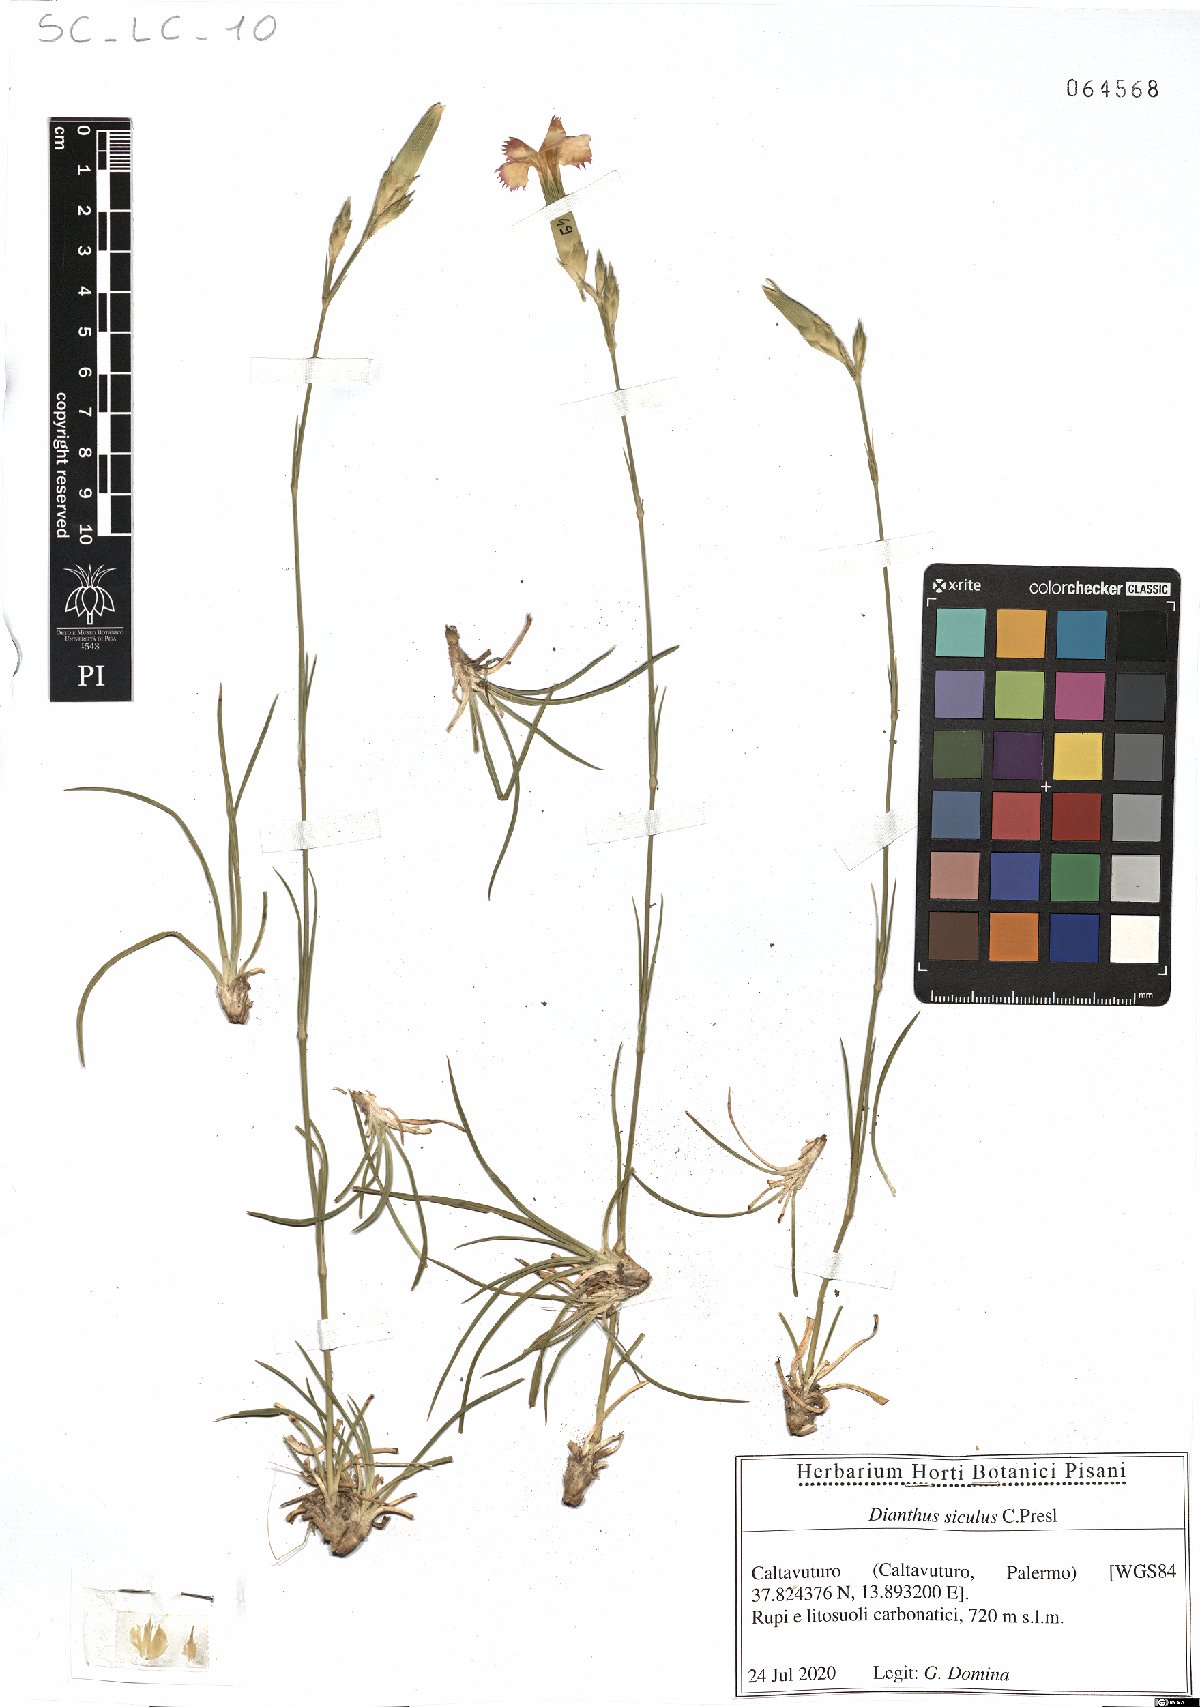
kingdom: Plantae
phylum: Tracheophyta
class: Magnoliopsida
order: Caryophyllales
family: Caryophyllaceae
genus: Dianthus
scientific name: Dianthus siculus
